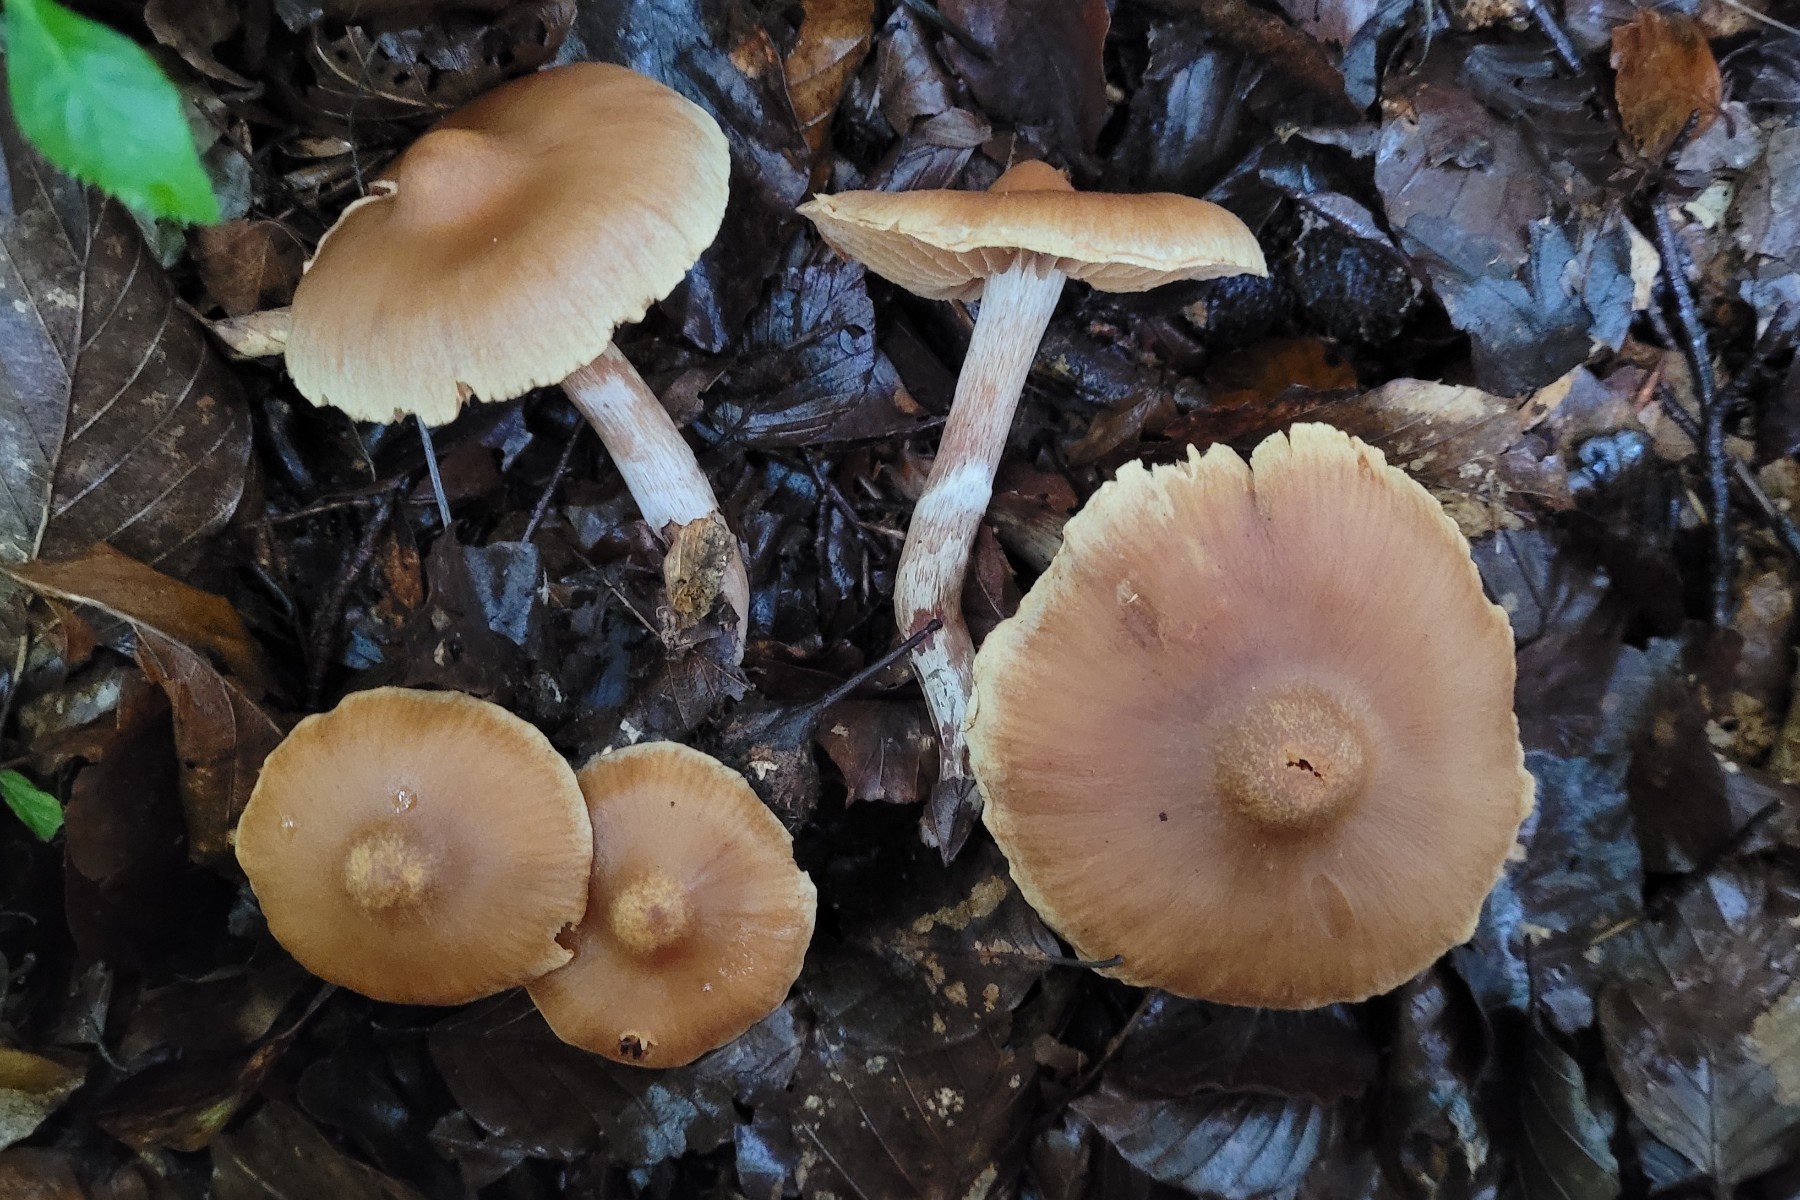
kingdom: Fungi
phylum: Basidiomycota
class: Agaricomycetes
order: Agaricales
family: Cortinariaceae
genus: Cortinarius
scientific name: Cortinarius semiodoratus
